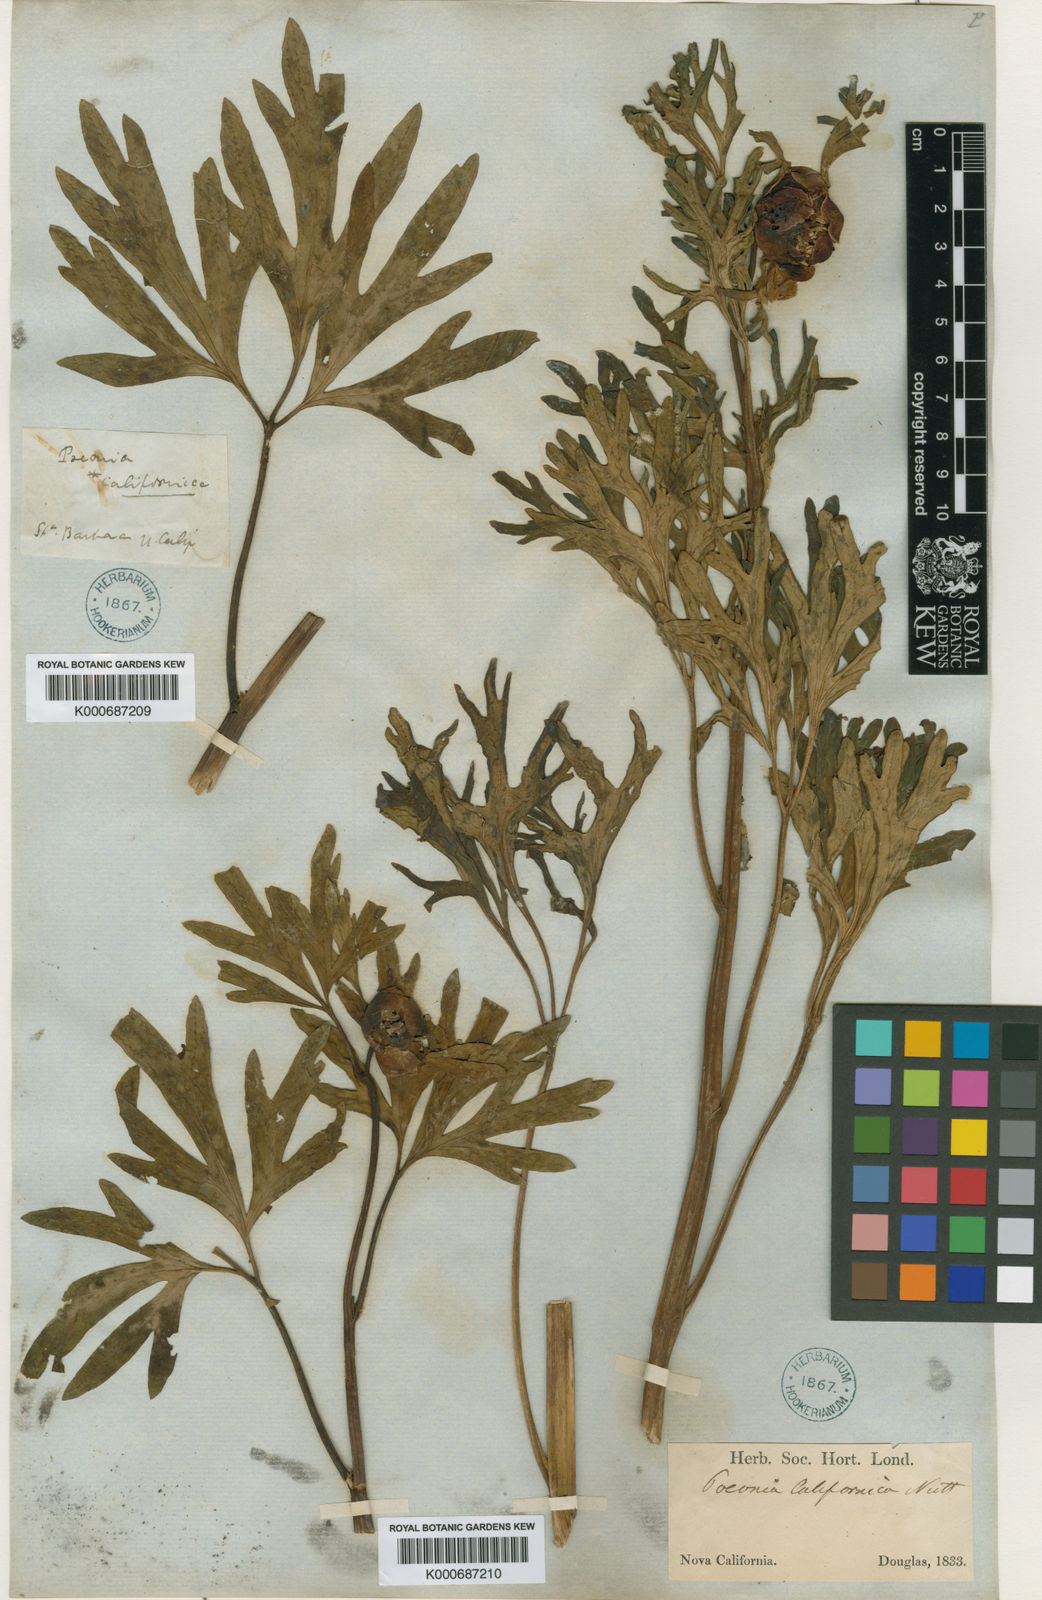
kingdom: Plantae
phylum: Tracheophyta
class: Magnoliopsida
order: Saxifragales
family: Paeoniaceae
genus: Paeonia
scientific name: Paeonia brownii
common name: Brown's peony
